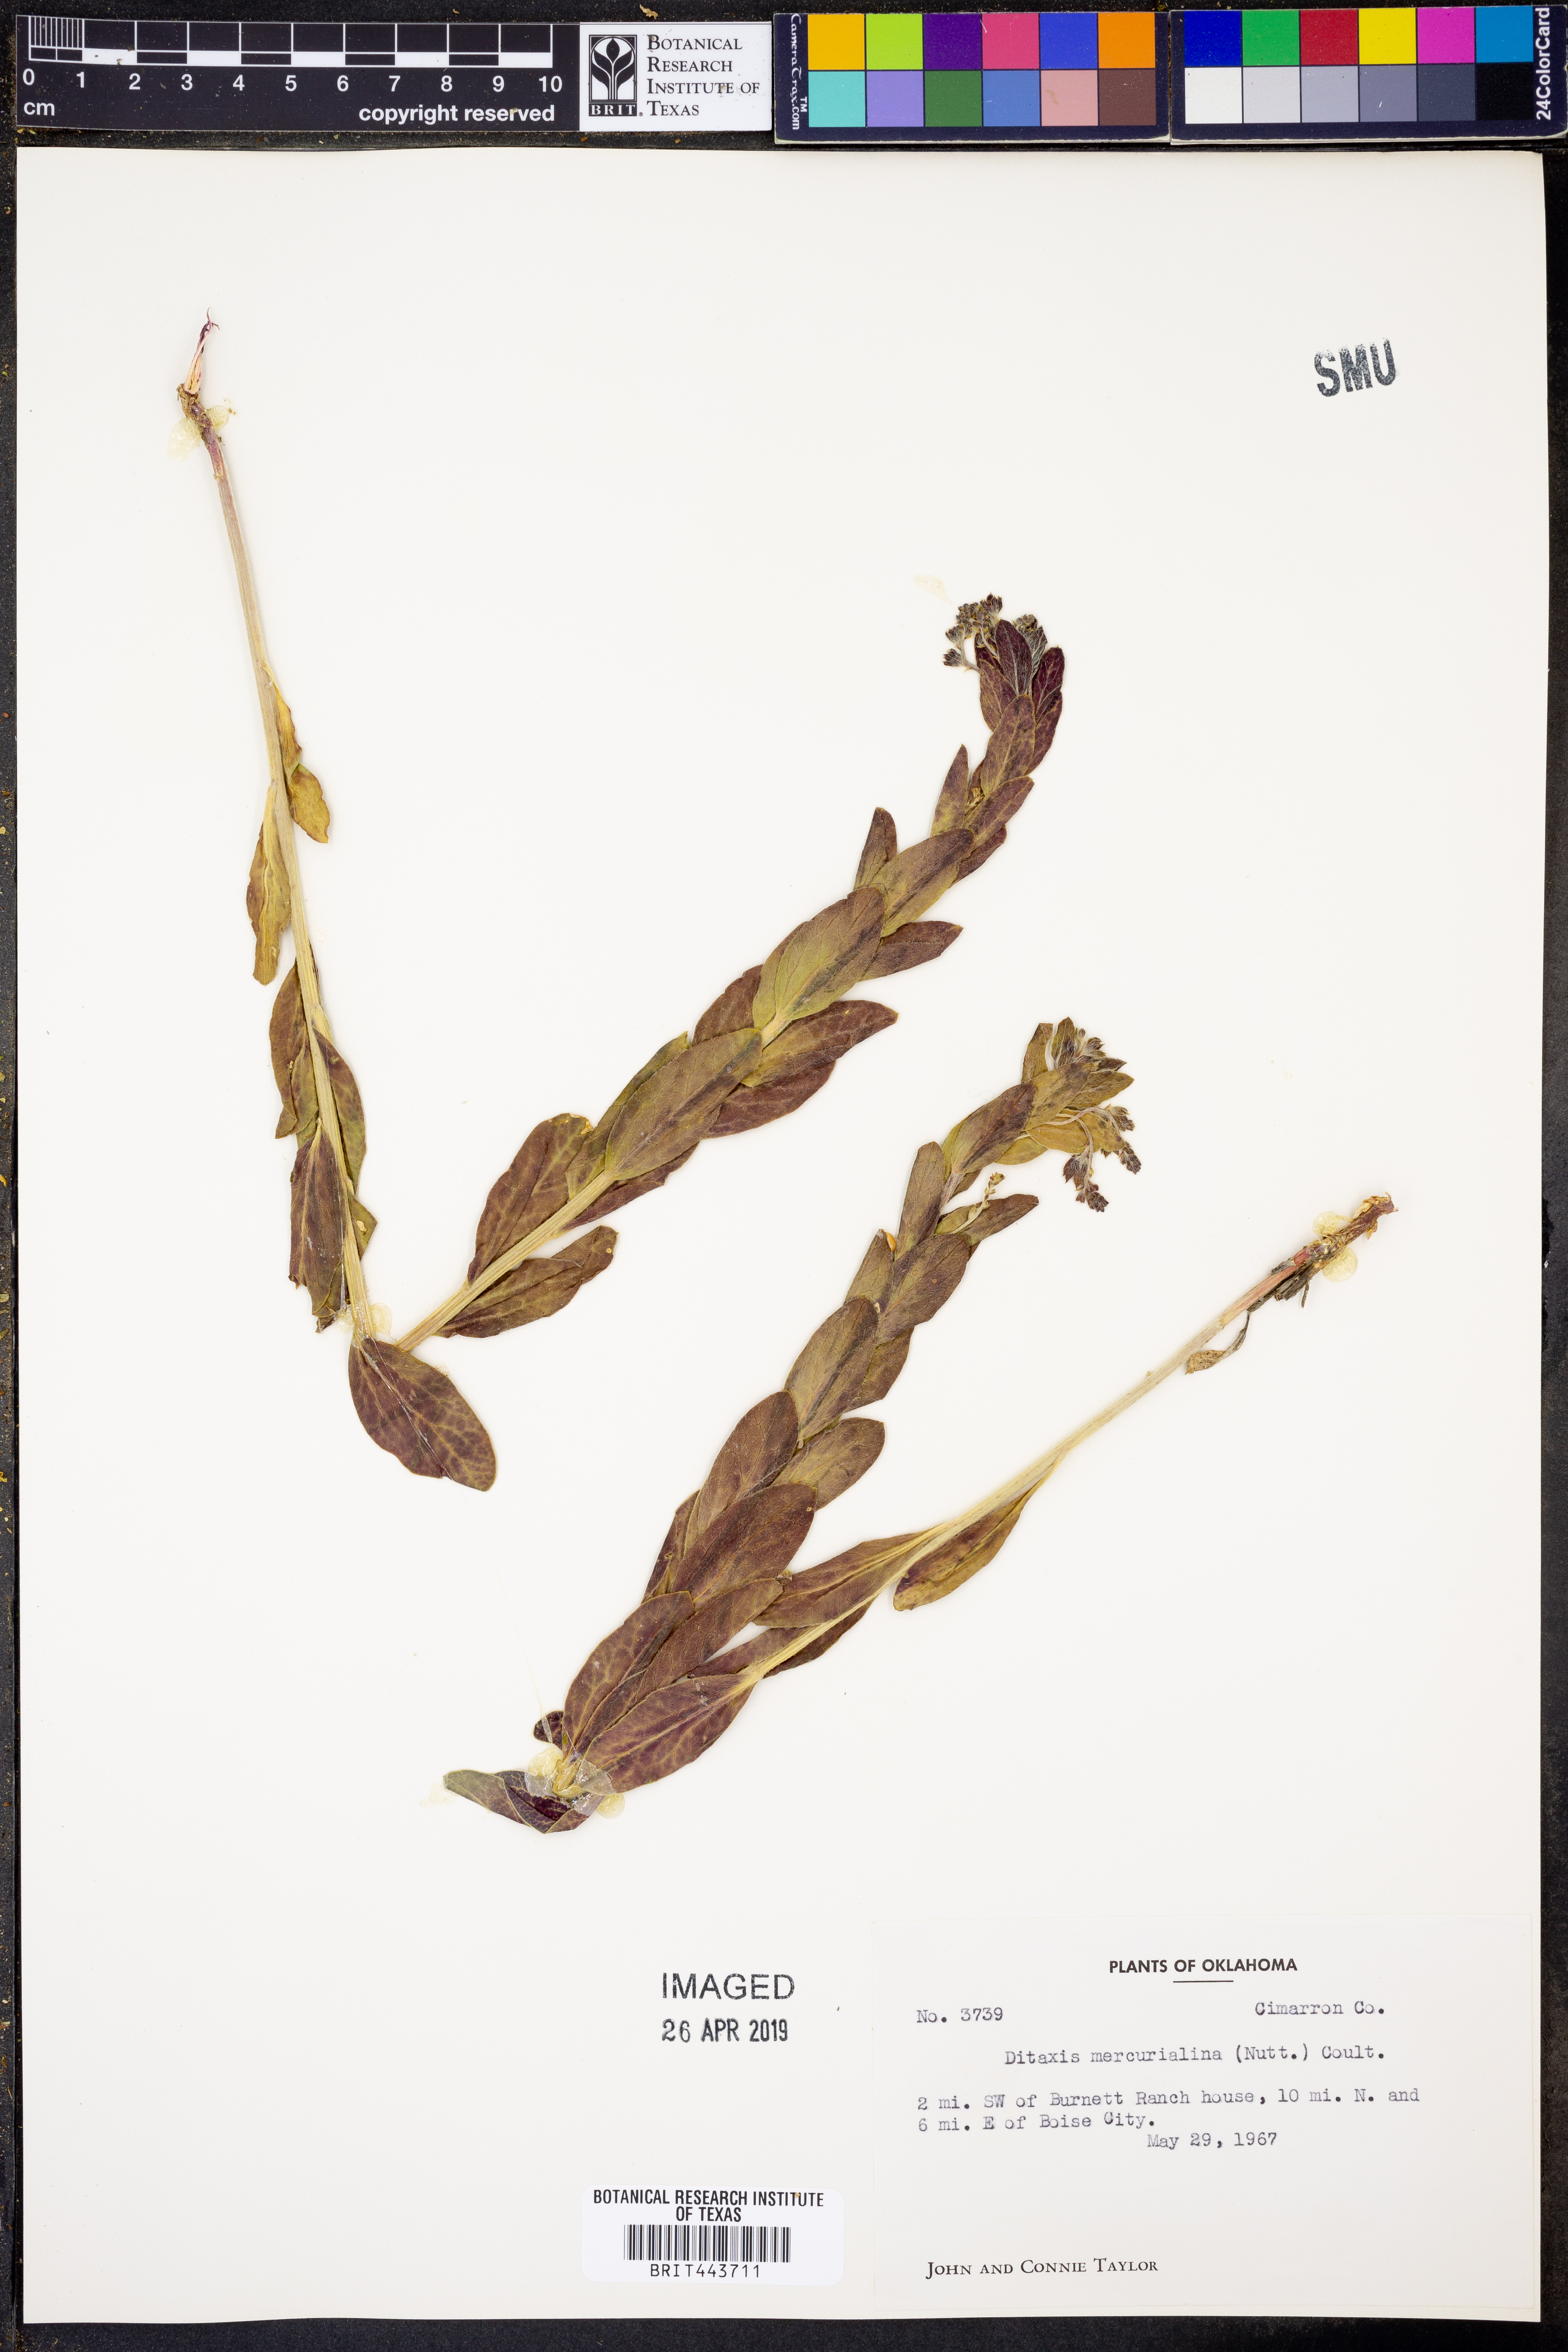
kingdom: Plantae
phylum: Tracheophyta
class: Magnoliopsida
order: Malpighiales
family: Euphorbiaceae
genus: Ditaxis
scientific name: Ditaxis mercurialina
